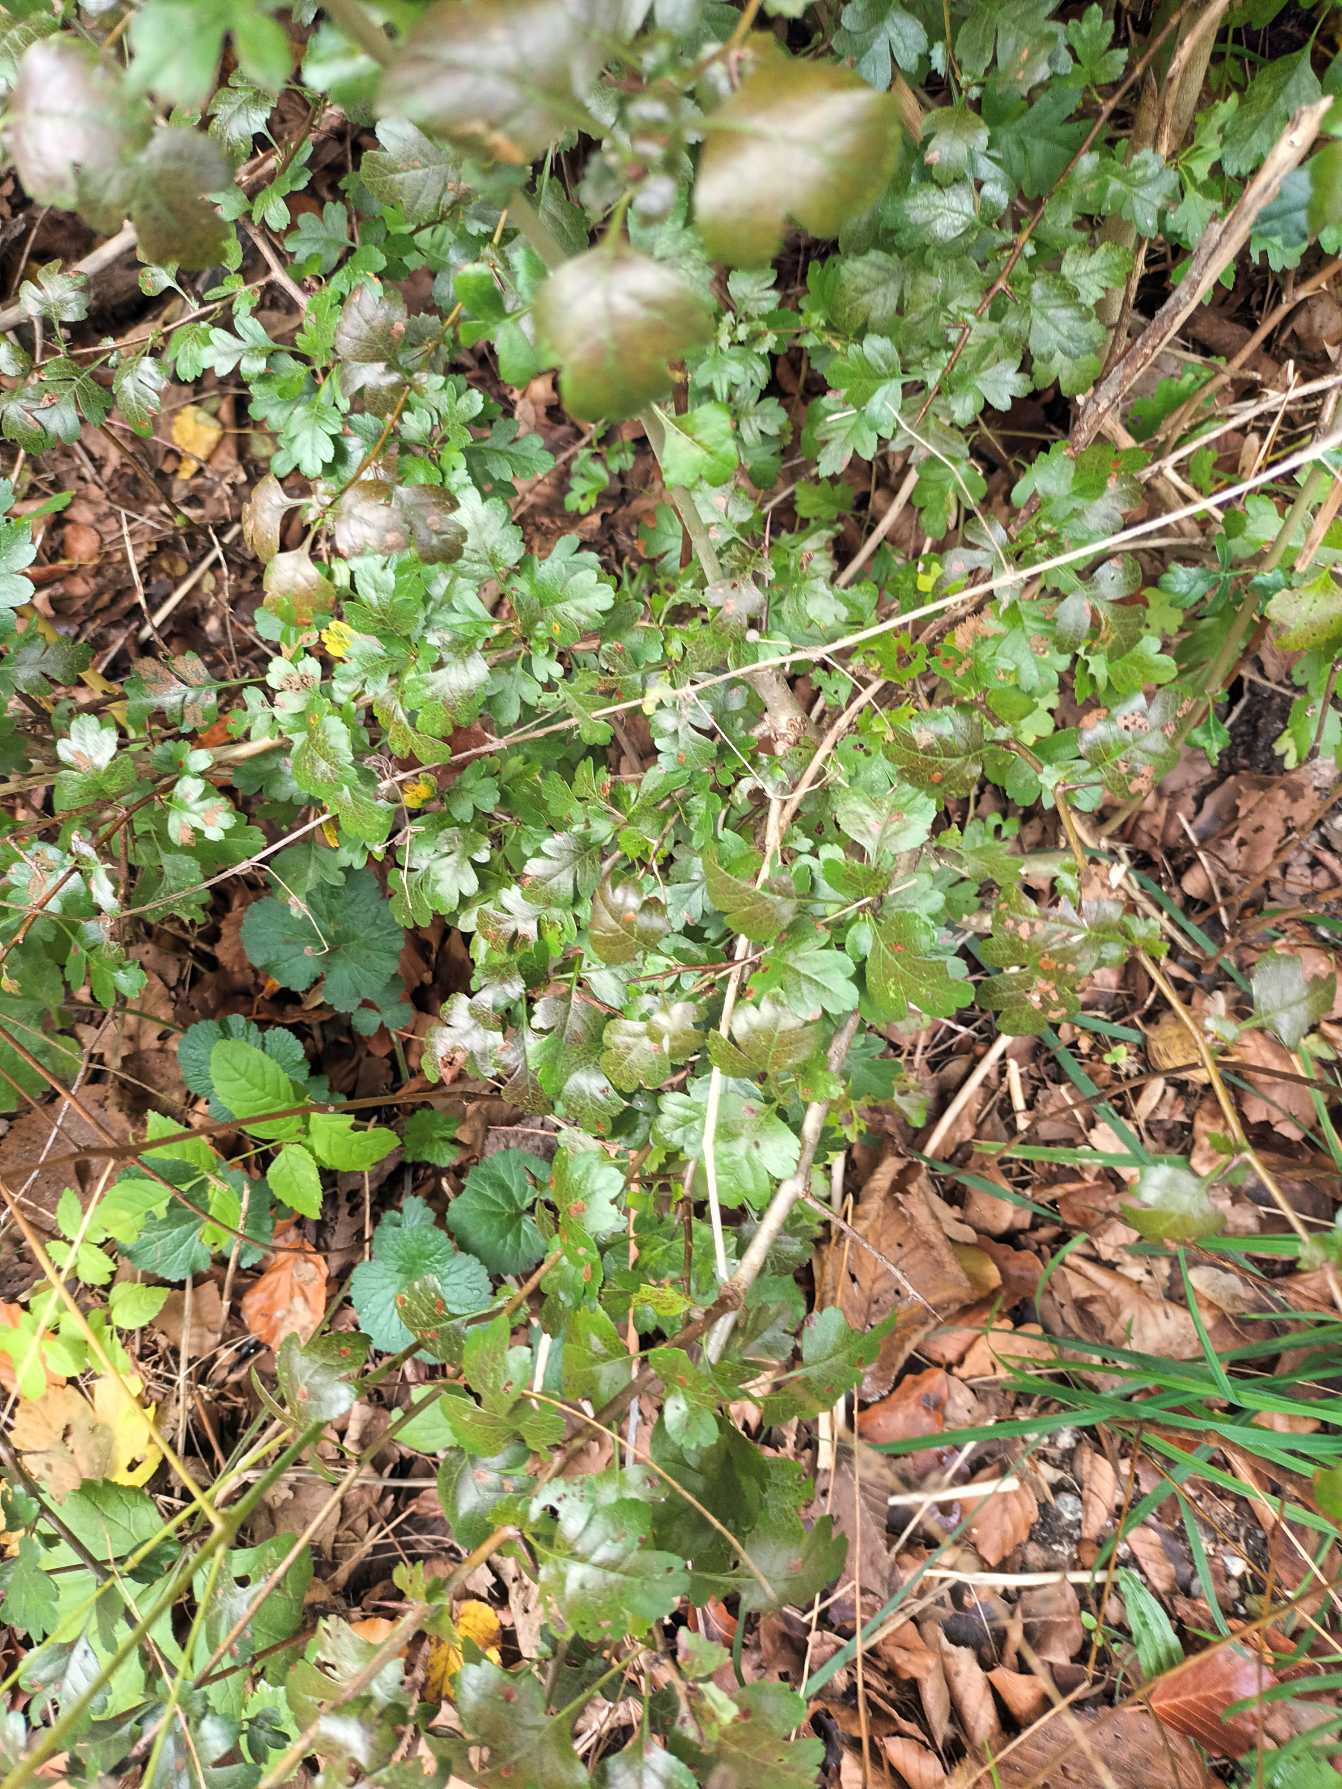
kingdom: Plantae
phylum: Tracheophyta
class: Magnoliopsida
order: Rosales
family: Rosaceae
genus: Crataegus
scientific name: Crataegus media
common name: Almindelig hvidtjørn × engriflet hvidtjørn
